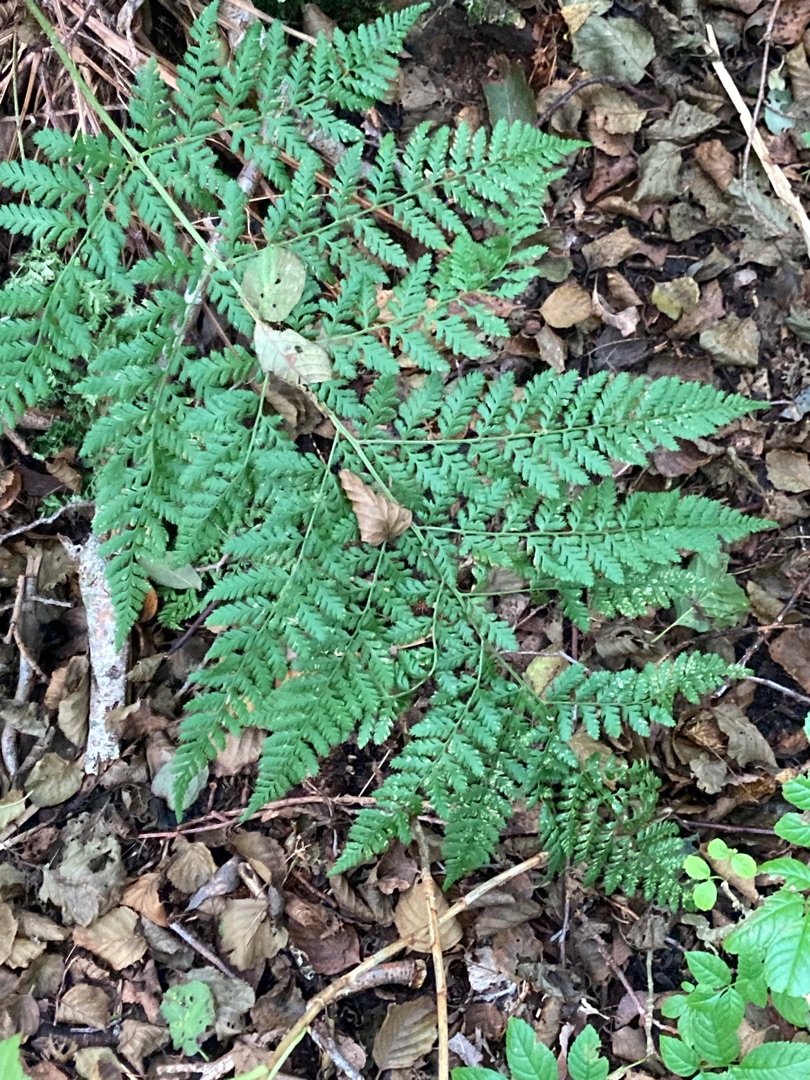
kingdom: Plantae
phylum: Tracheophyta
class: Polypodiopsida
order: Polypodiales
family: Dryopteridaceae
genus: Dryopteris
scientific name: Dryopteris dilatata
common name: Bredbladet mangeløv
